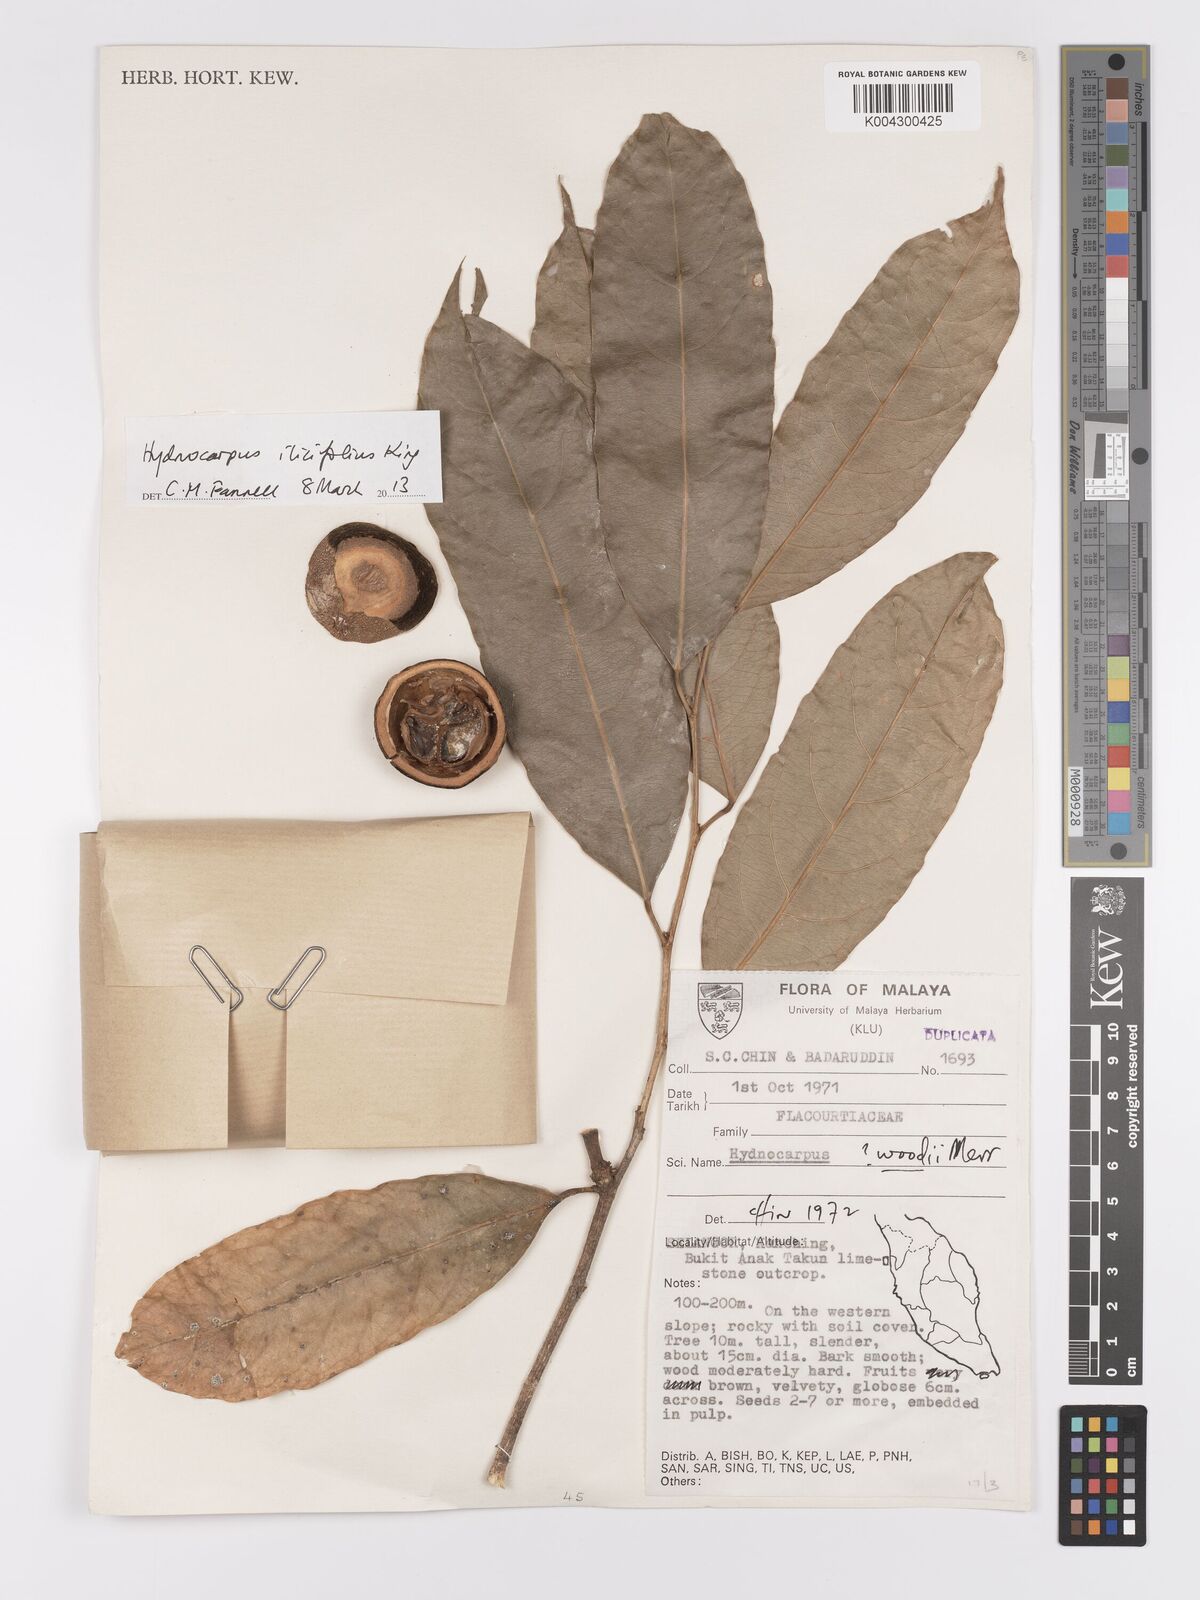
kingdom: Plantae
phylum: Tracheophyta
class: Magnoliopsida
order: Malpighiales
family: Achariaceae
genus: Hydnocarpus
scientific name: Hydnocarpus ilicifolius
